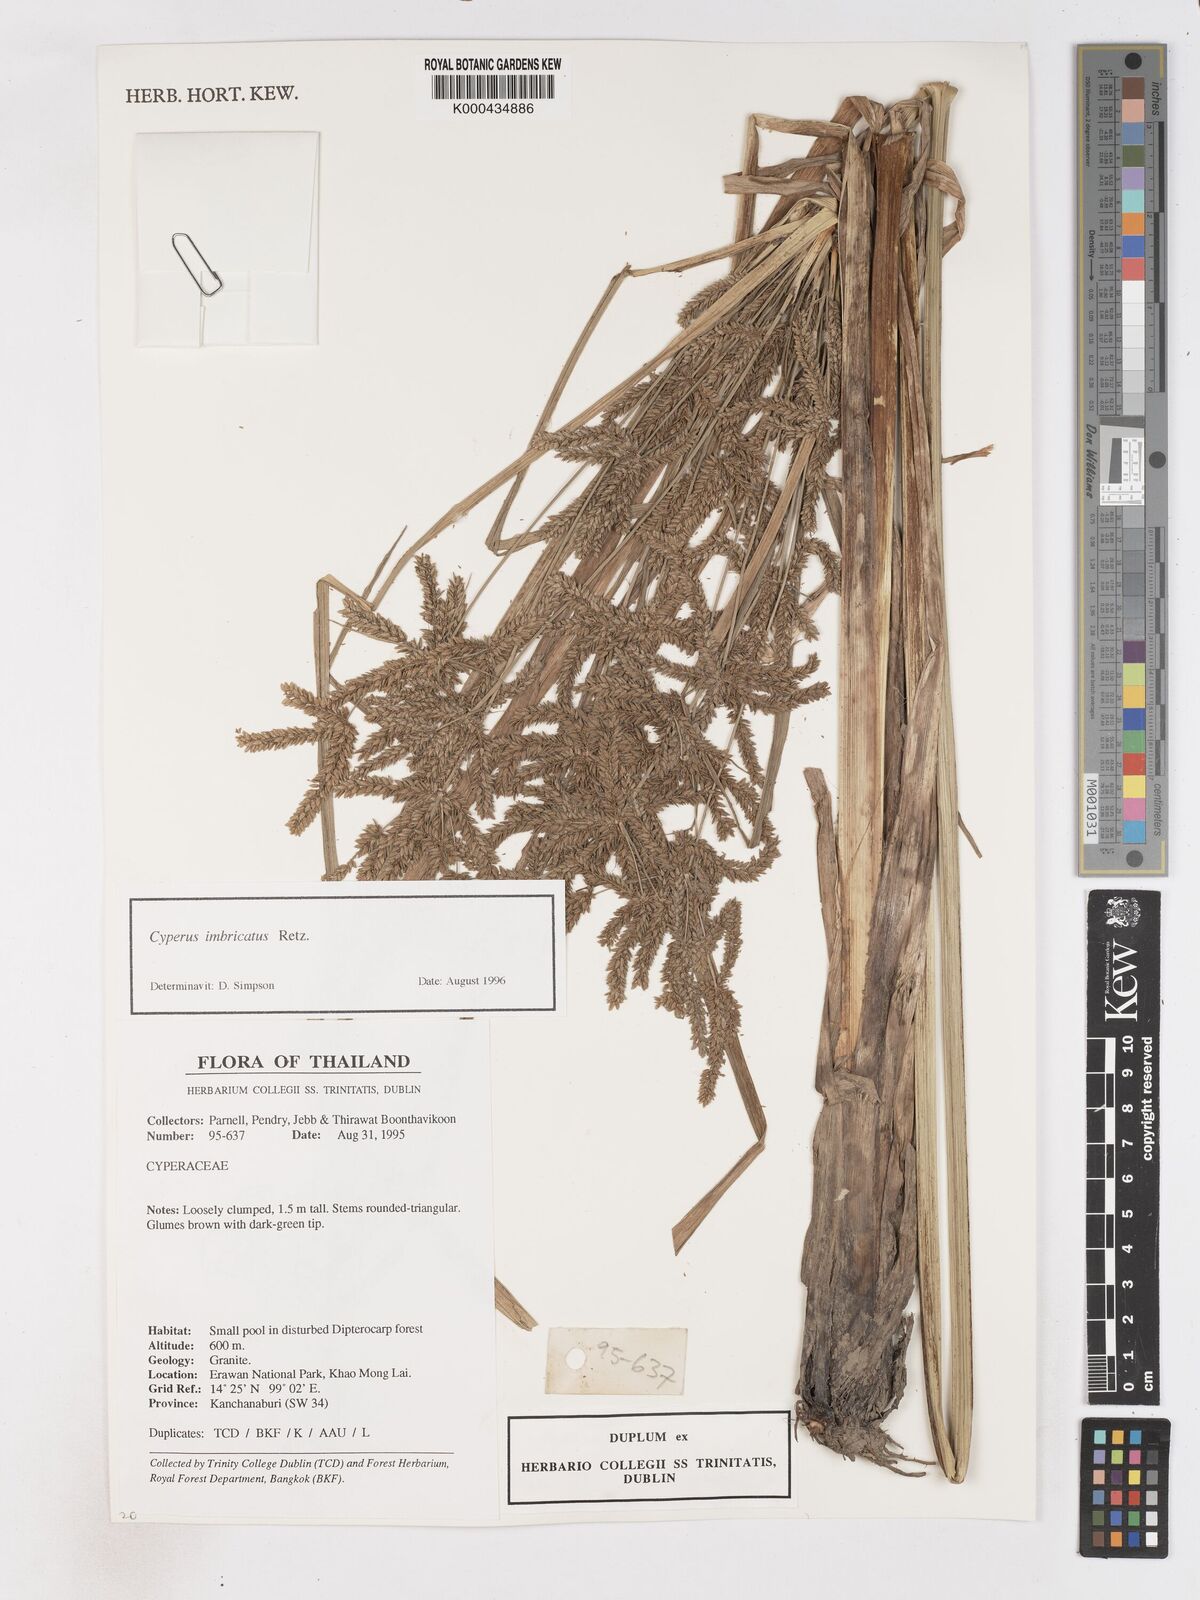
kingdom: Plantae
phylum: Tracheophyta
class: Liliopsida
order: Poales
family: Cyperaceae
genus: Cyperus
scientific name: Cyperus imbricatus
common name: Shingle flatsedge
